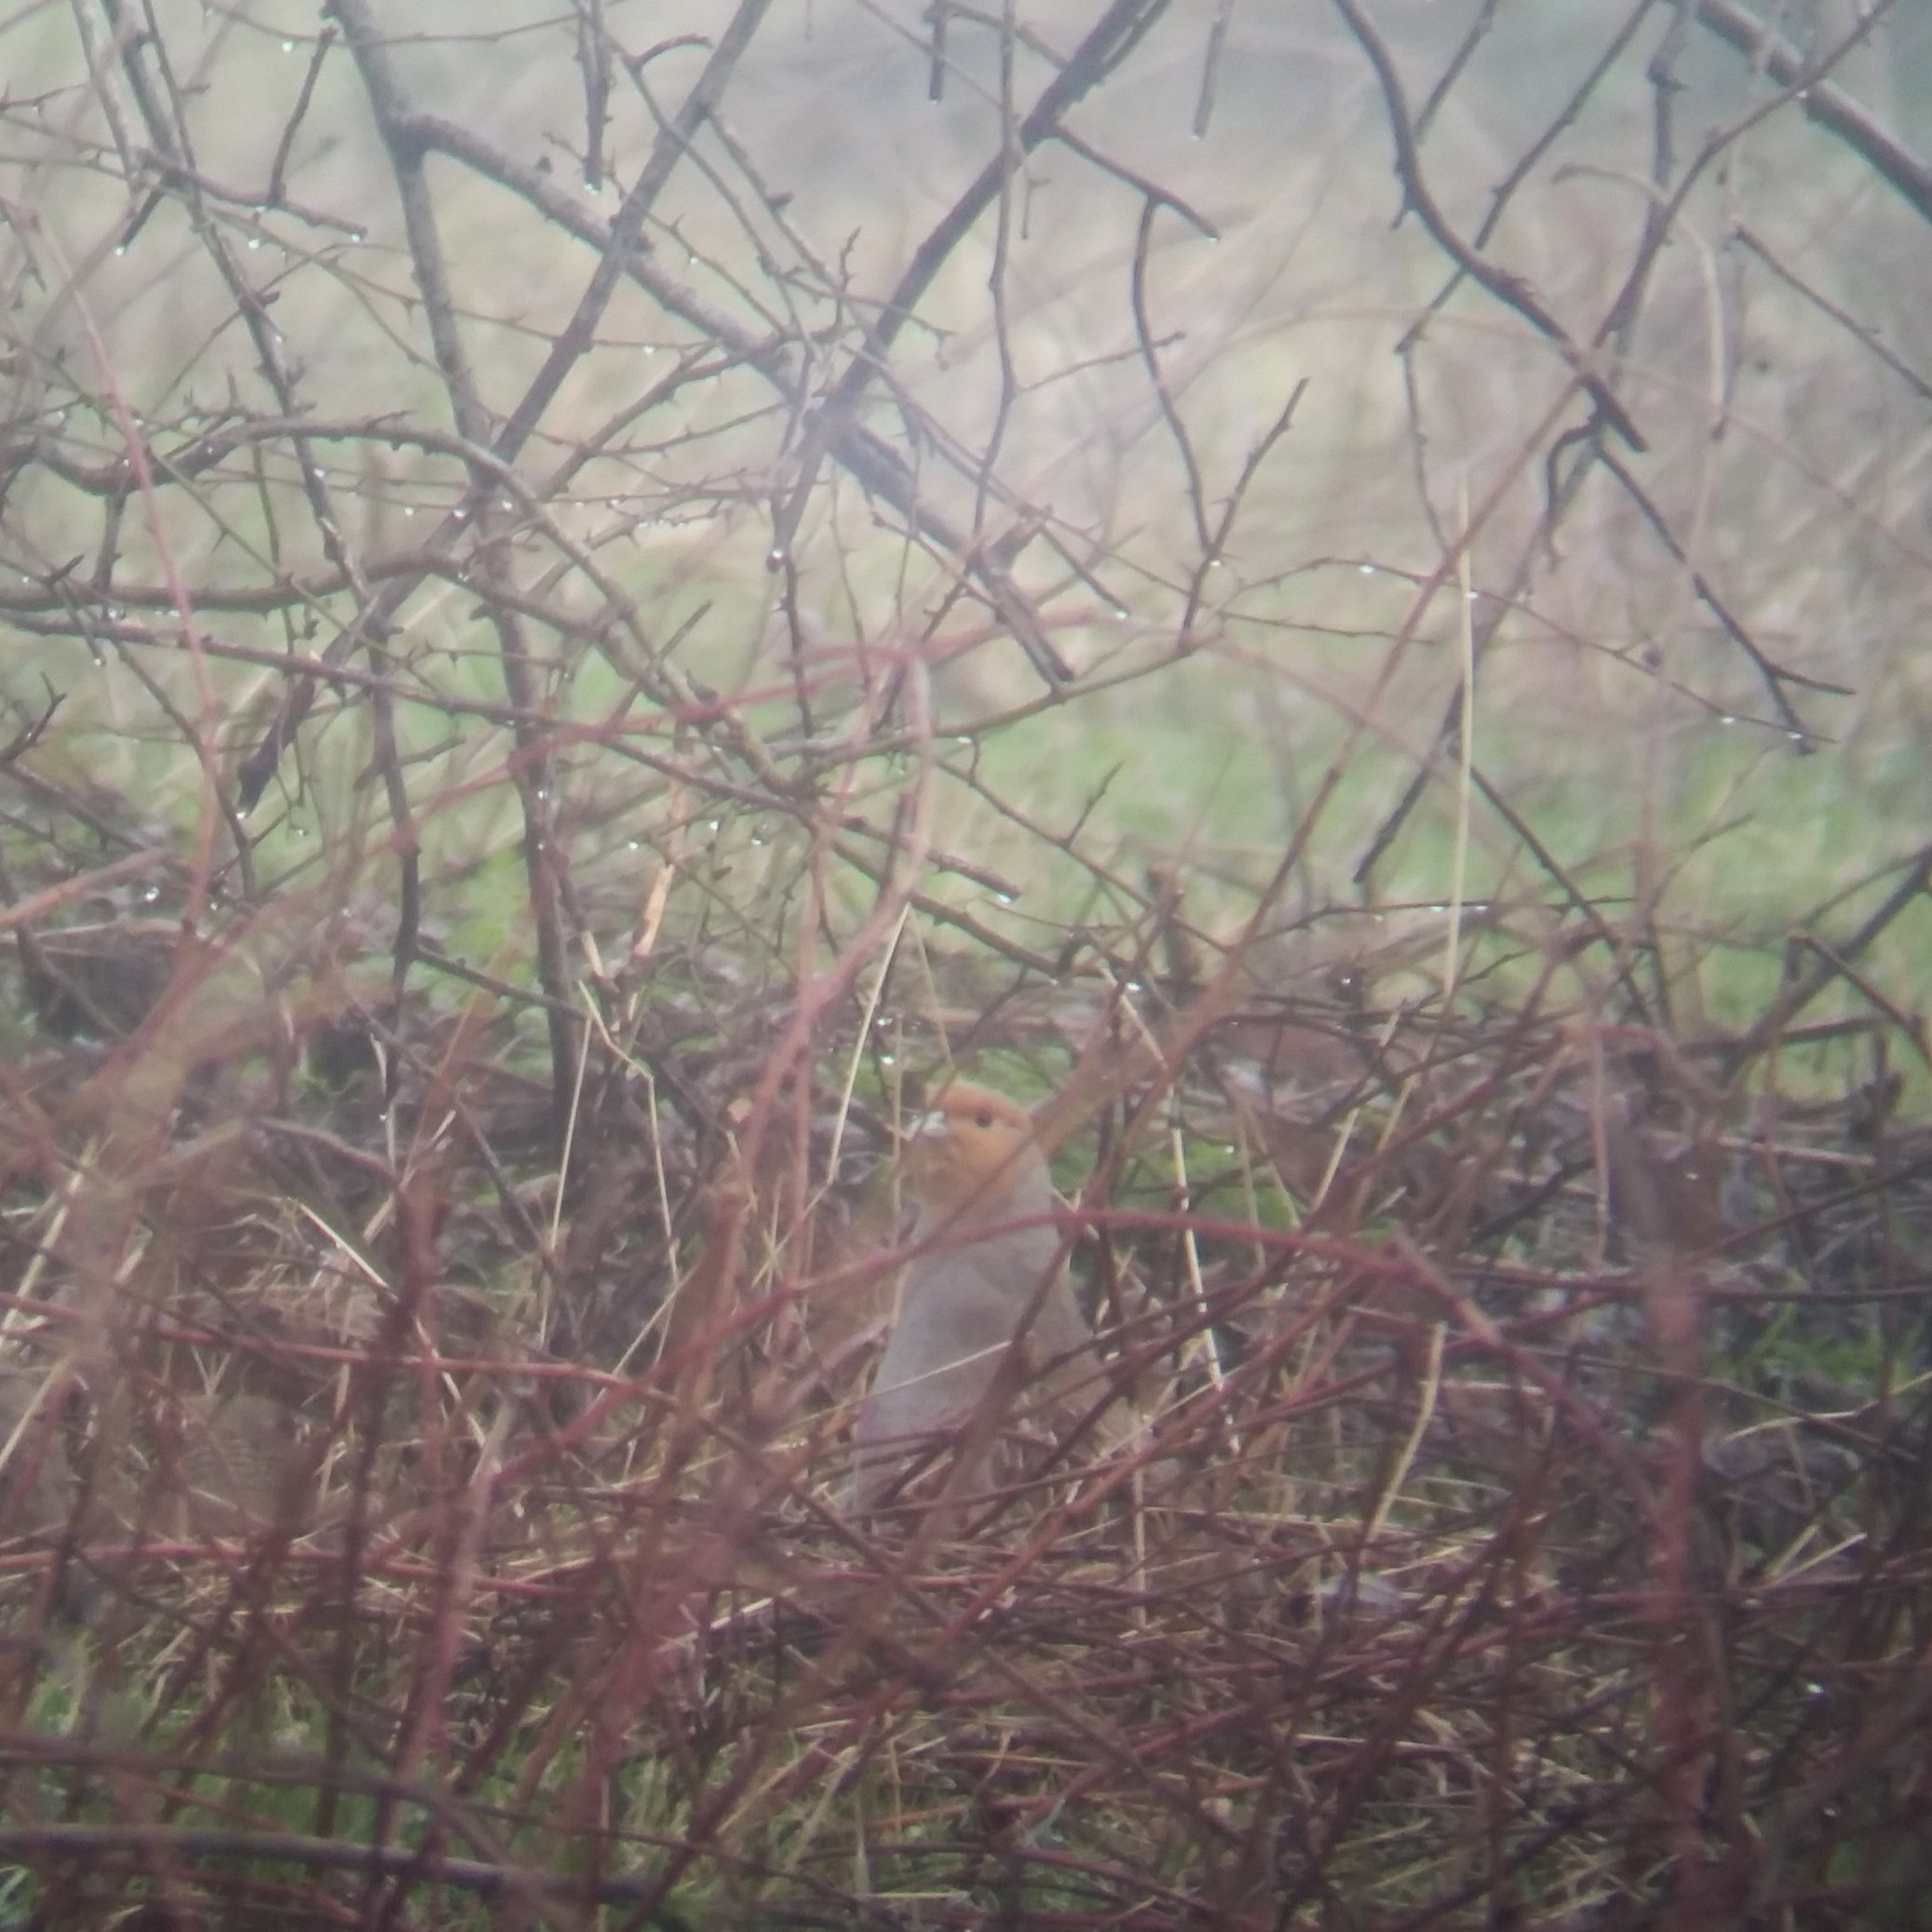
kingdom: Animalia
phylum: Chordata
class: Aves
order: Galliformes
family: Phasianidae
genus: Perdix
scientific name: Perdix perdix
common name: Agerhøne
